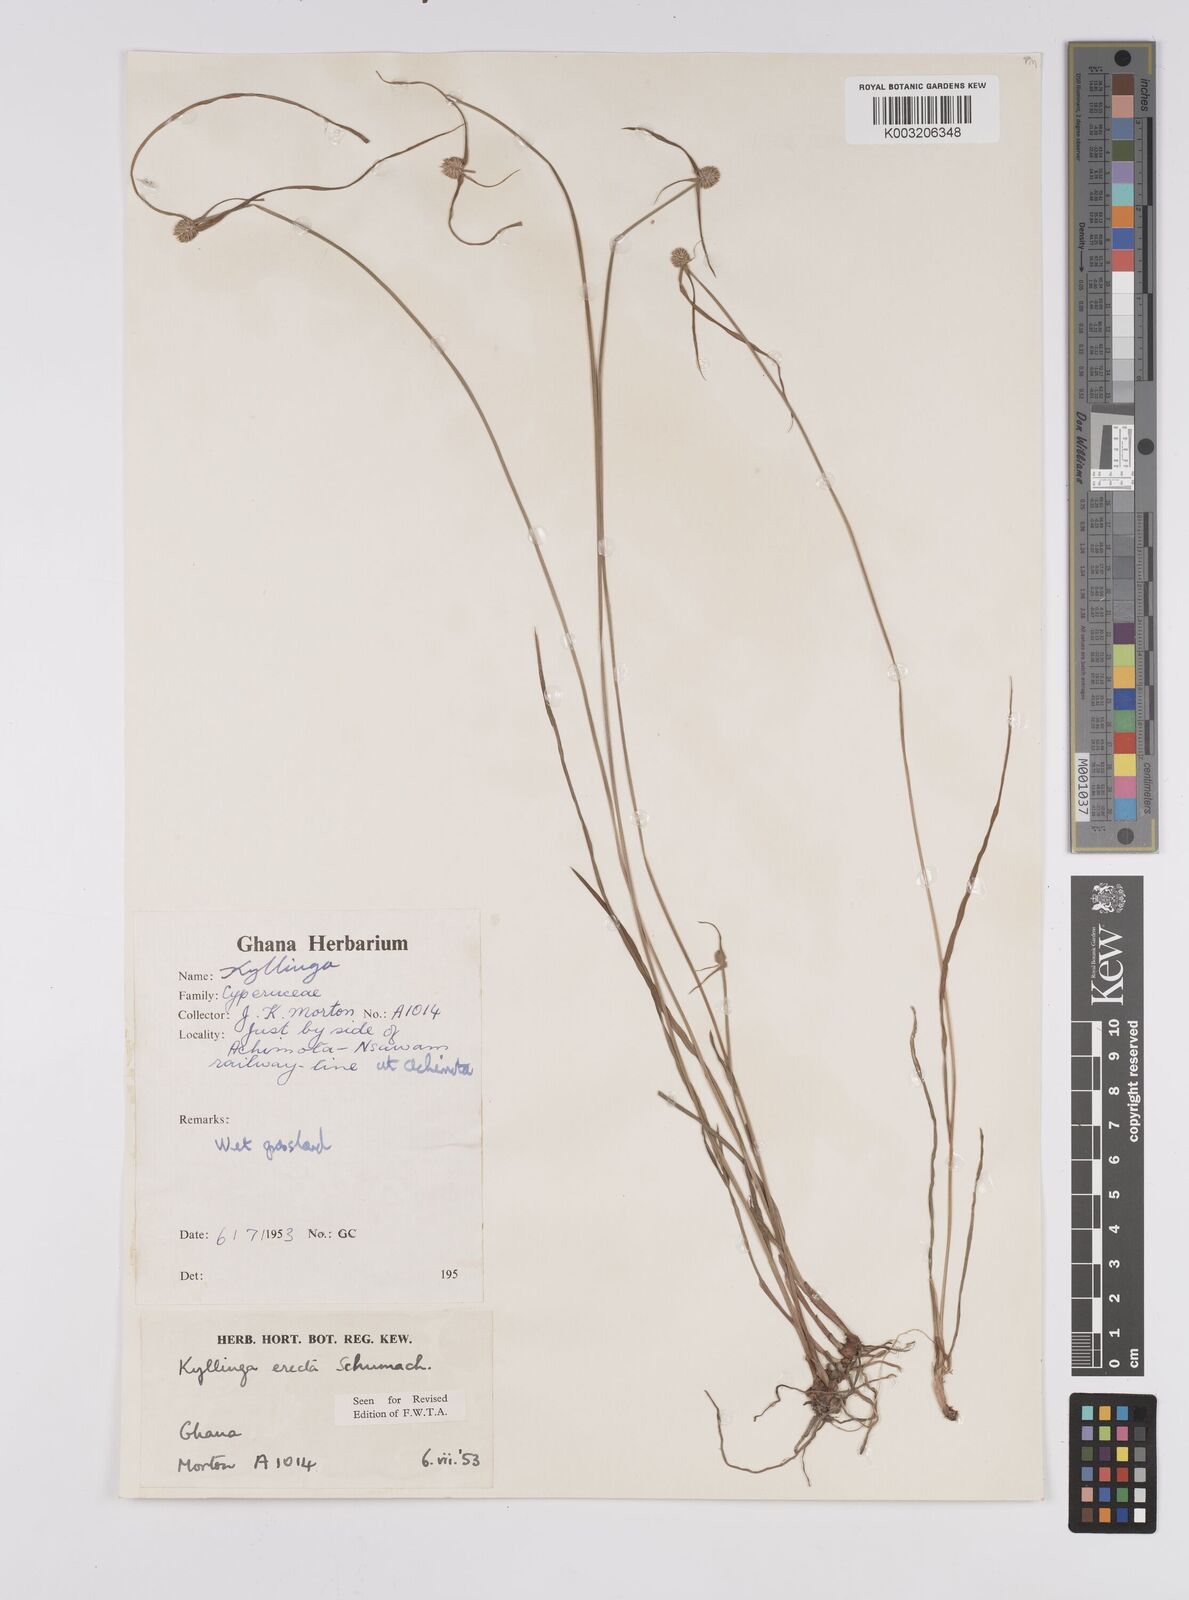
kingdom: Plantae
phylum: Tracheophyta
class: Liliopsida
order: Poales
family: Cyperaceae
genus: Cyperus
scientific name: Cyperus erectus
